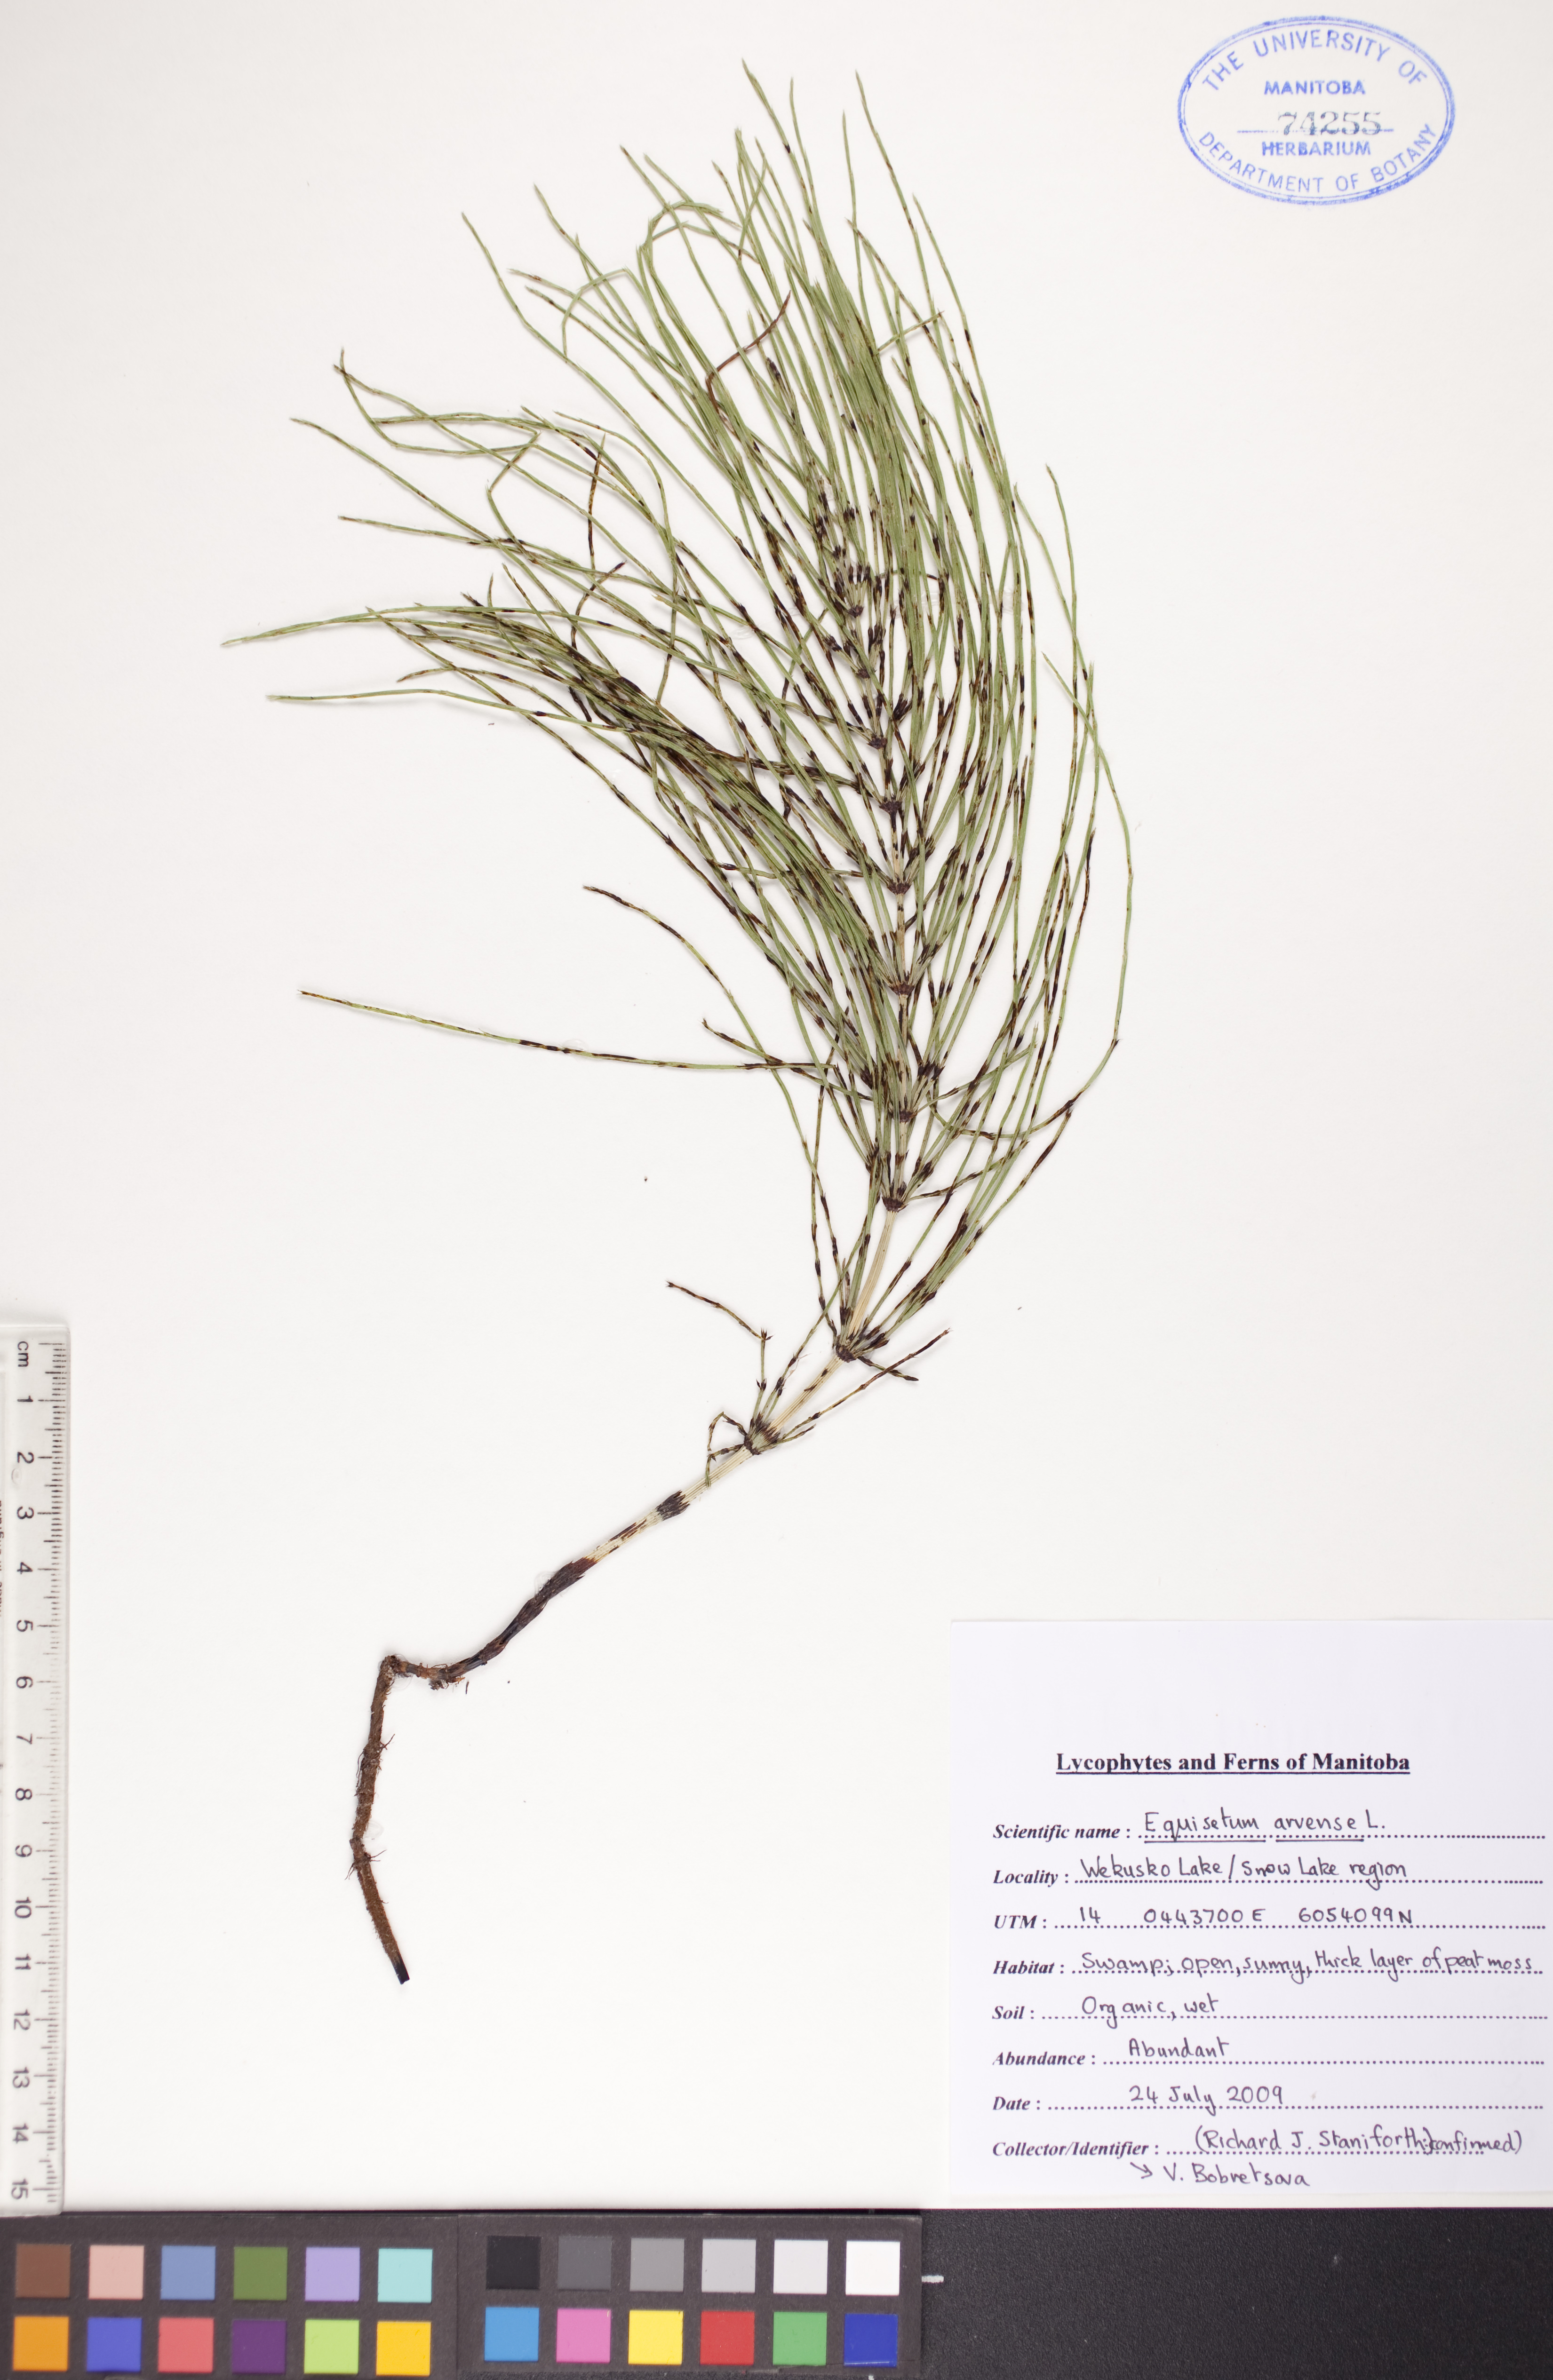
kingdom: Plantae
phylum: Tracheophyta
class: Polypodiopsida
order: Equisetales
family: Equisetaceae
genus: Equisetum
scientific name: Equisetum arvense
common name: Field horsetail
